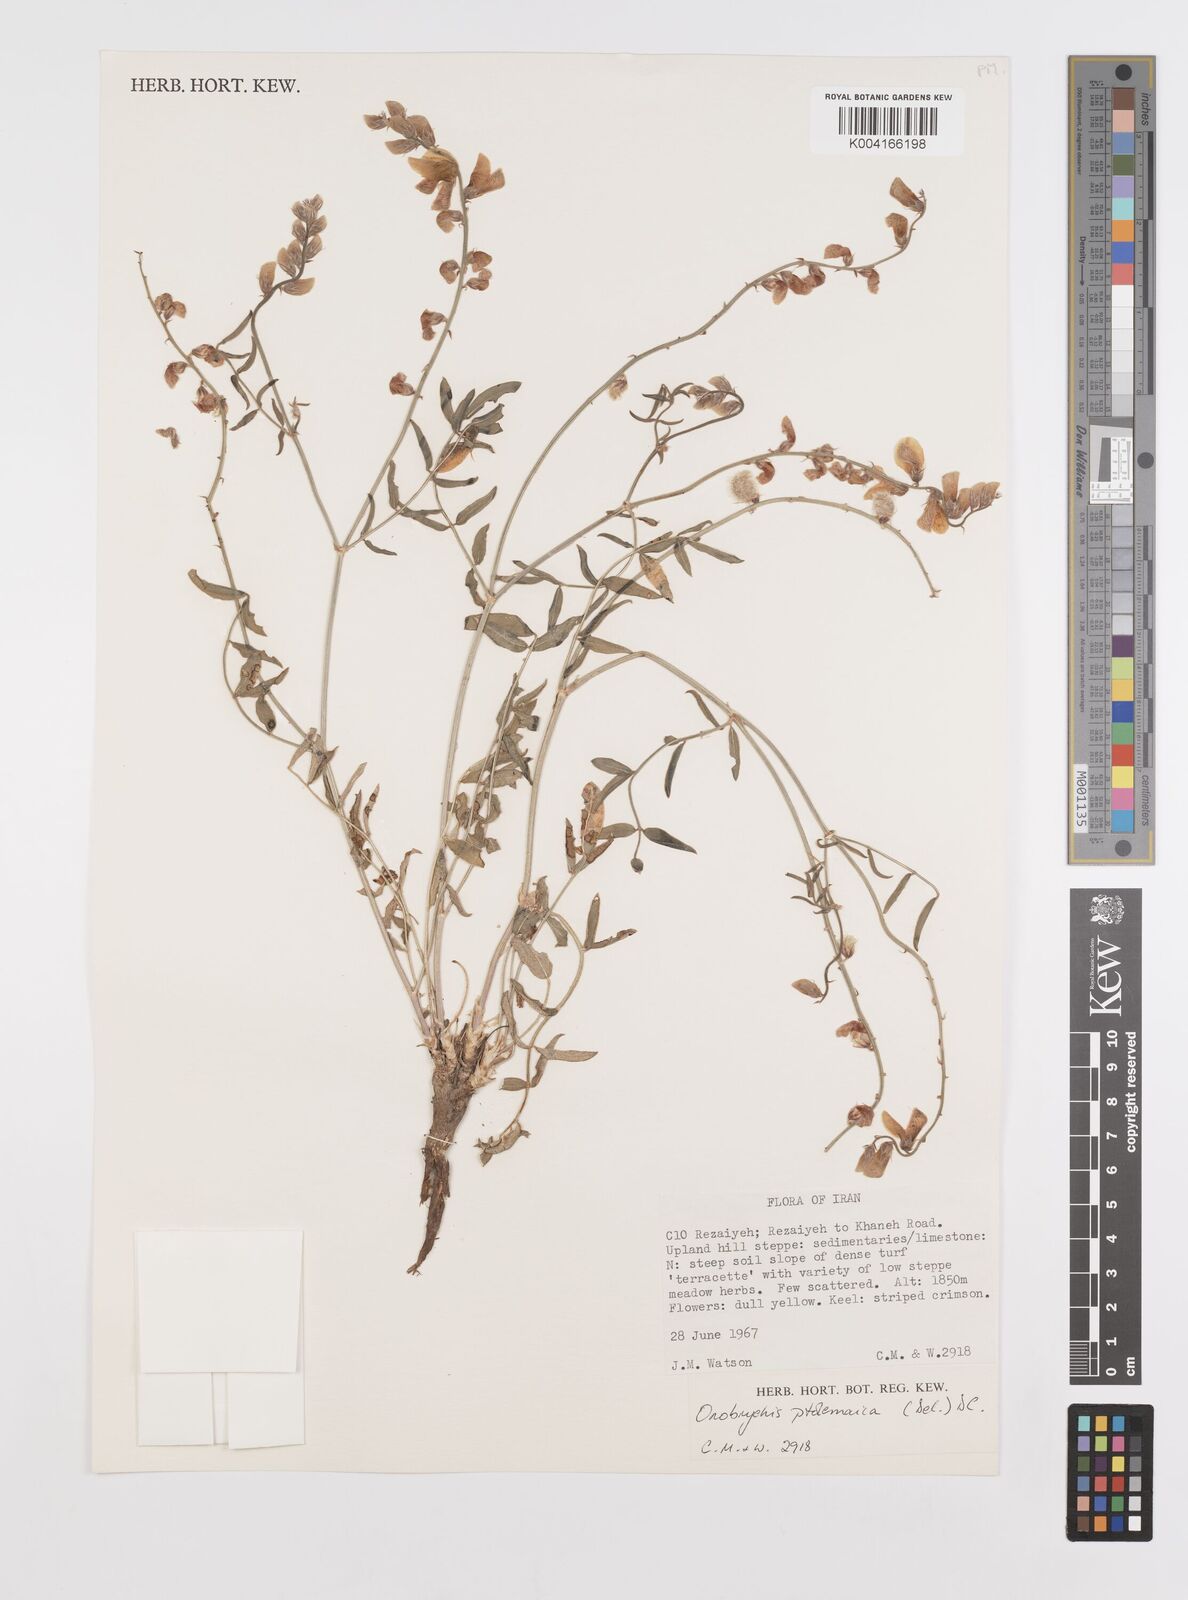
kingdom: Plantae
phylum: Tracheophyta
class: Magnoliopsida
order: Fabales
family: Fabaceae
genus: Onobrychis
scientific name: Onobrychis ptolemaica
